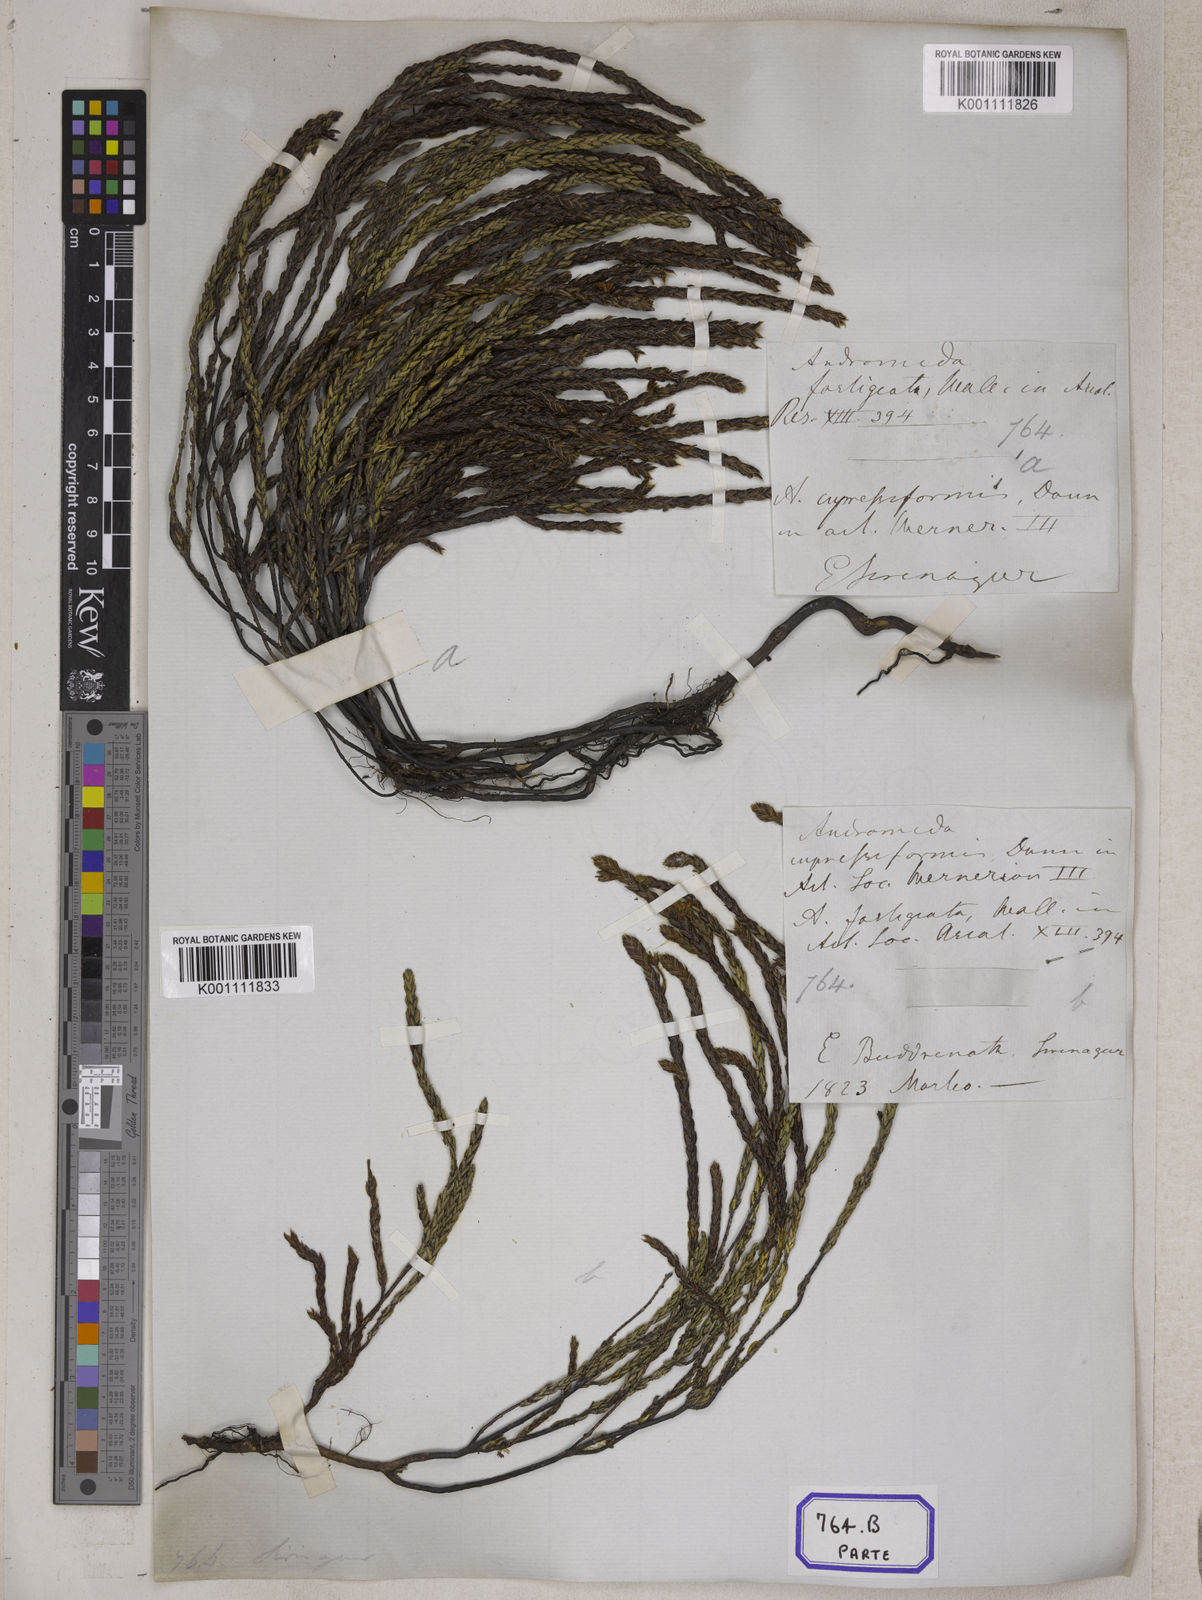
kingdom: Plantae
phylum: Tracheophyta
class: Magnoliopsida
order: Ericales
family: Ericaceae
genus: Cassiope
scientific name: Cassiope fastigiata
